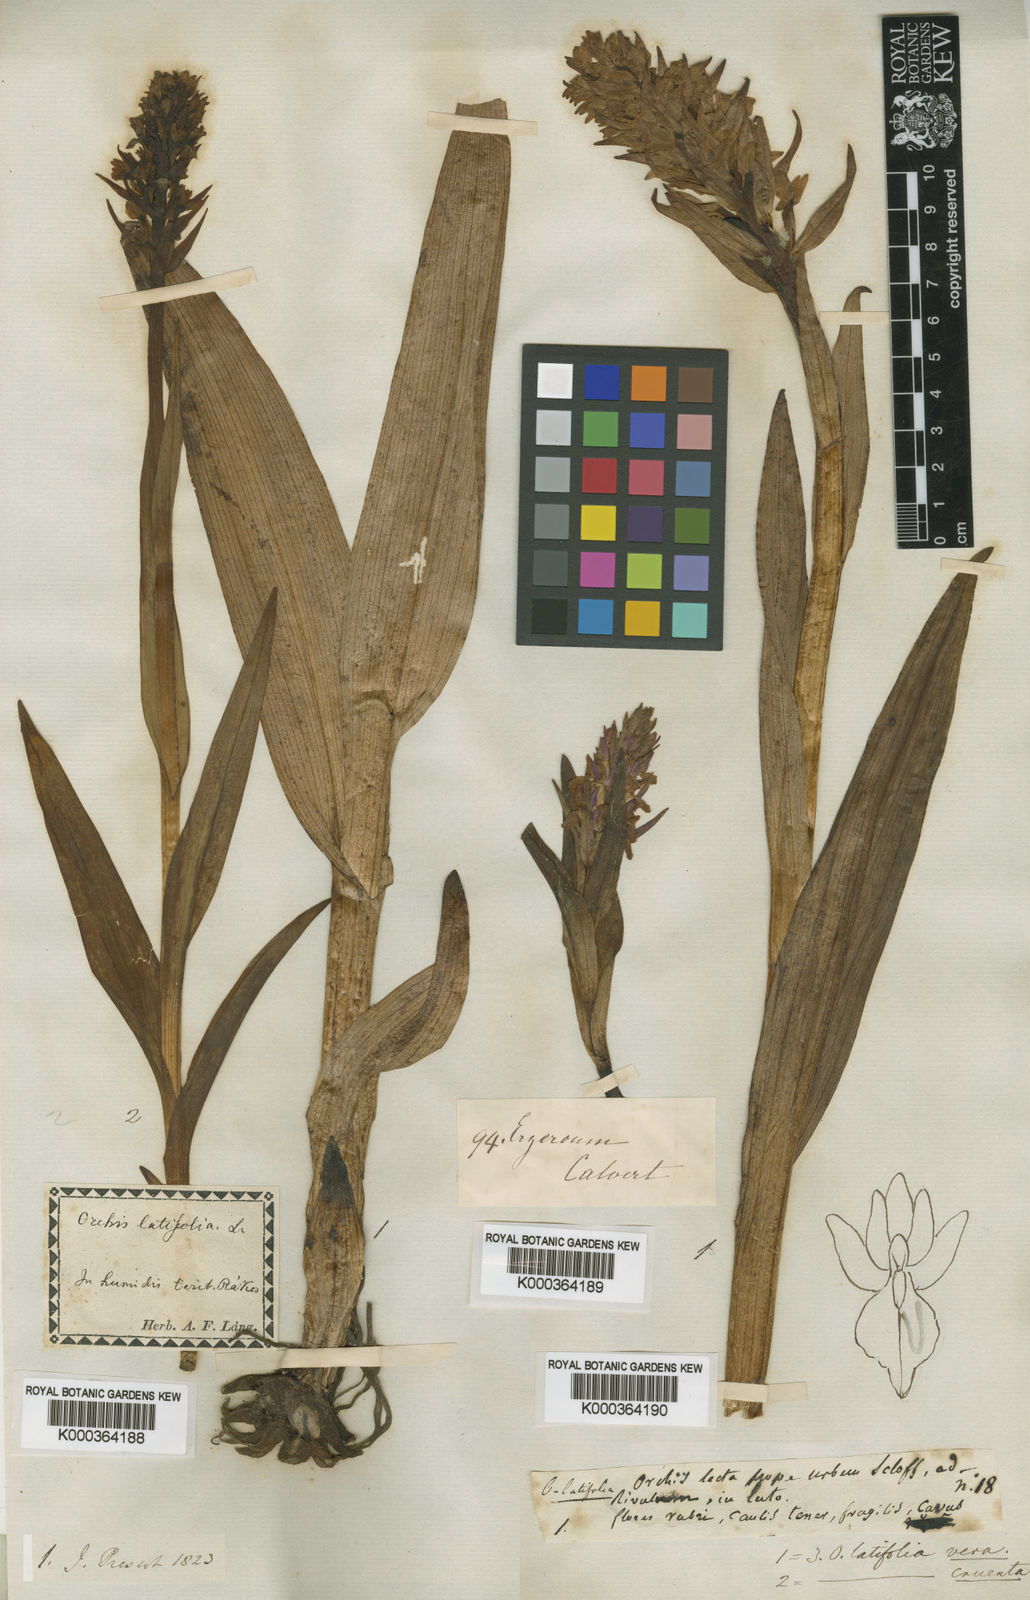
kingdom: Plantae
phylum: Tracheophyta
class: Liliopsida
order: Asparagales
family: Orchidaceae
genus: Dactylorhiza
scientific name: Dactylorhiza
